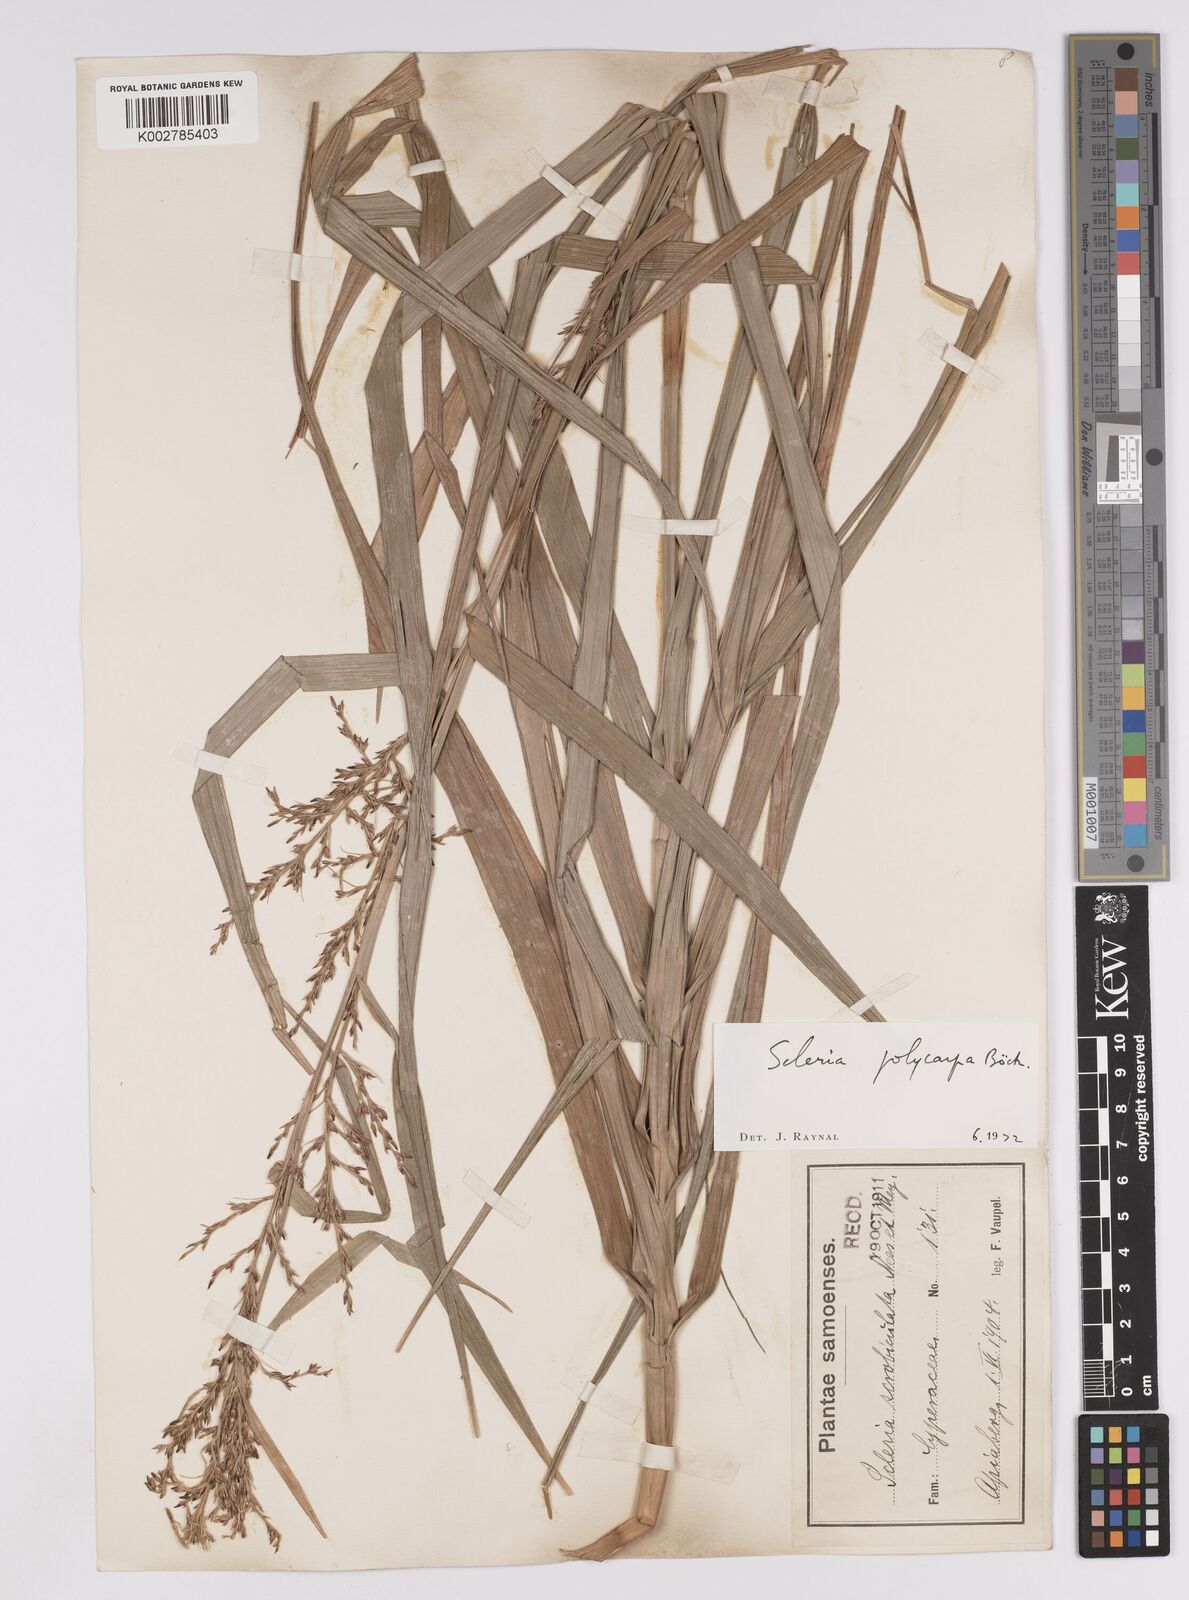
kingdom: Plantae
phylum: Tracheophyta
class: Liliopsida
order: Poales
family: Cyperaceae
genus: Scleria
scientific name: Scleria polycarpa
